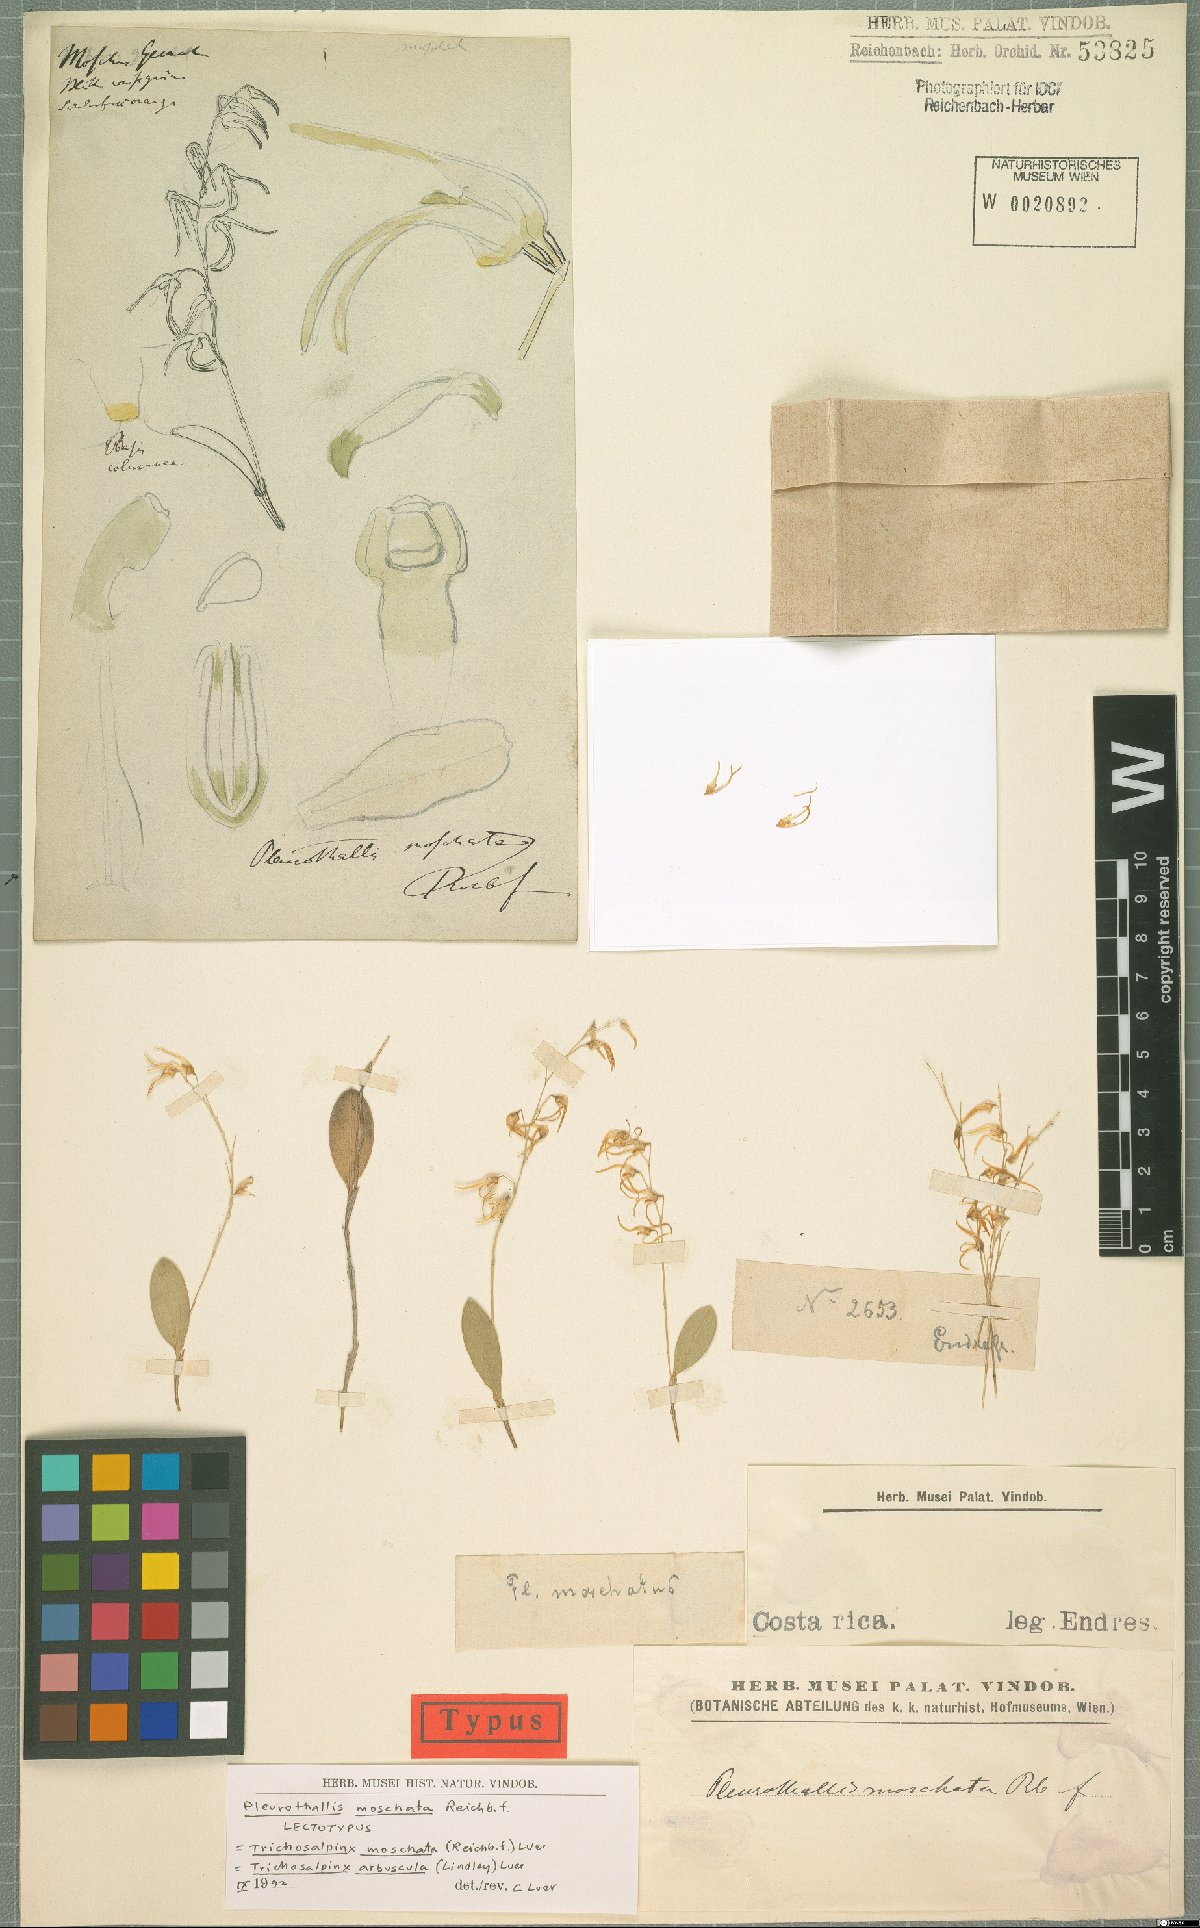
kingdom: Plantae
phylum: Tracheophyta
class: Liliopsida
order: Asparagales
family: Orchidaceae
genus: Trichosalpinx
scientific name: Trichosalpinx arbuscula
